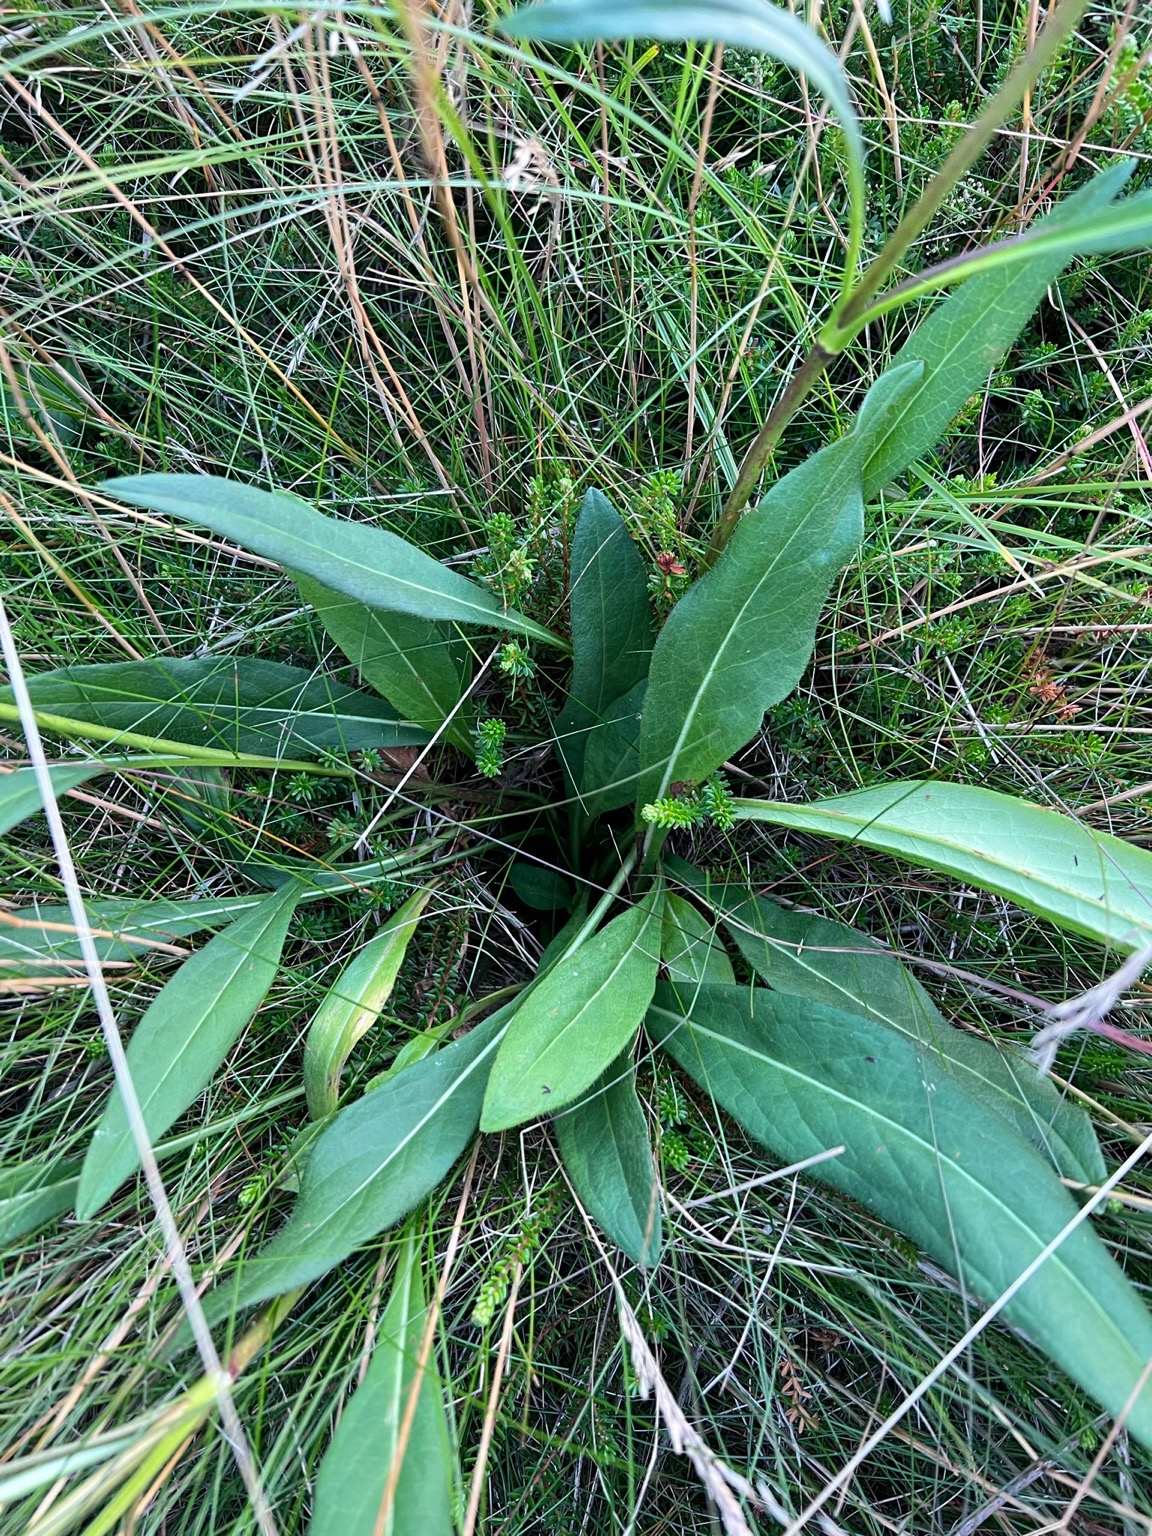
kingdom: Plantae
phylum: Tracheophyta
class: Magnoliopsida
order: Dipsacales
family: Caprifoliaceae
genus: Succisa
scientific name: Succisa pratensis
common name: Djævelsbid
